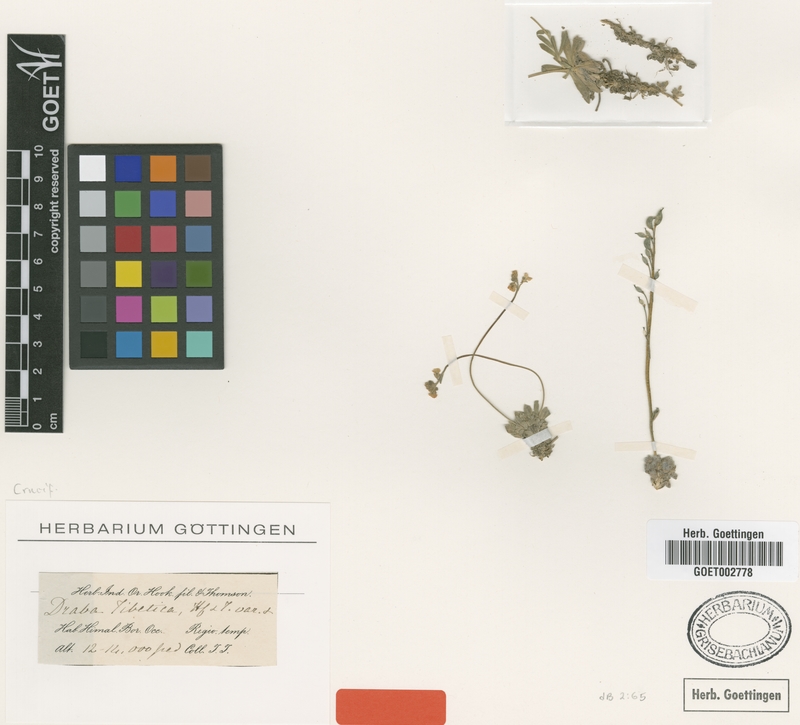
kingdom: Plantae
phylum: Tracheophyta
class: Magnoliopsida
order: Brassicales
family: Brassicaceae
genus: Draba
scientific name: Draba tibetica
